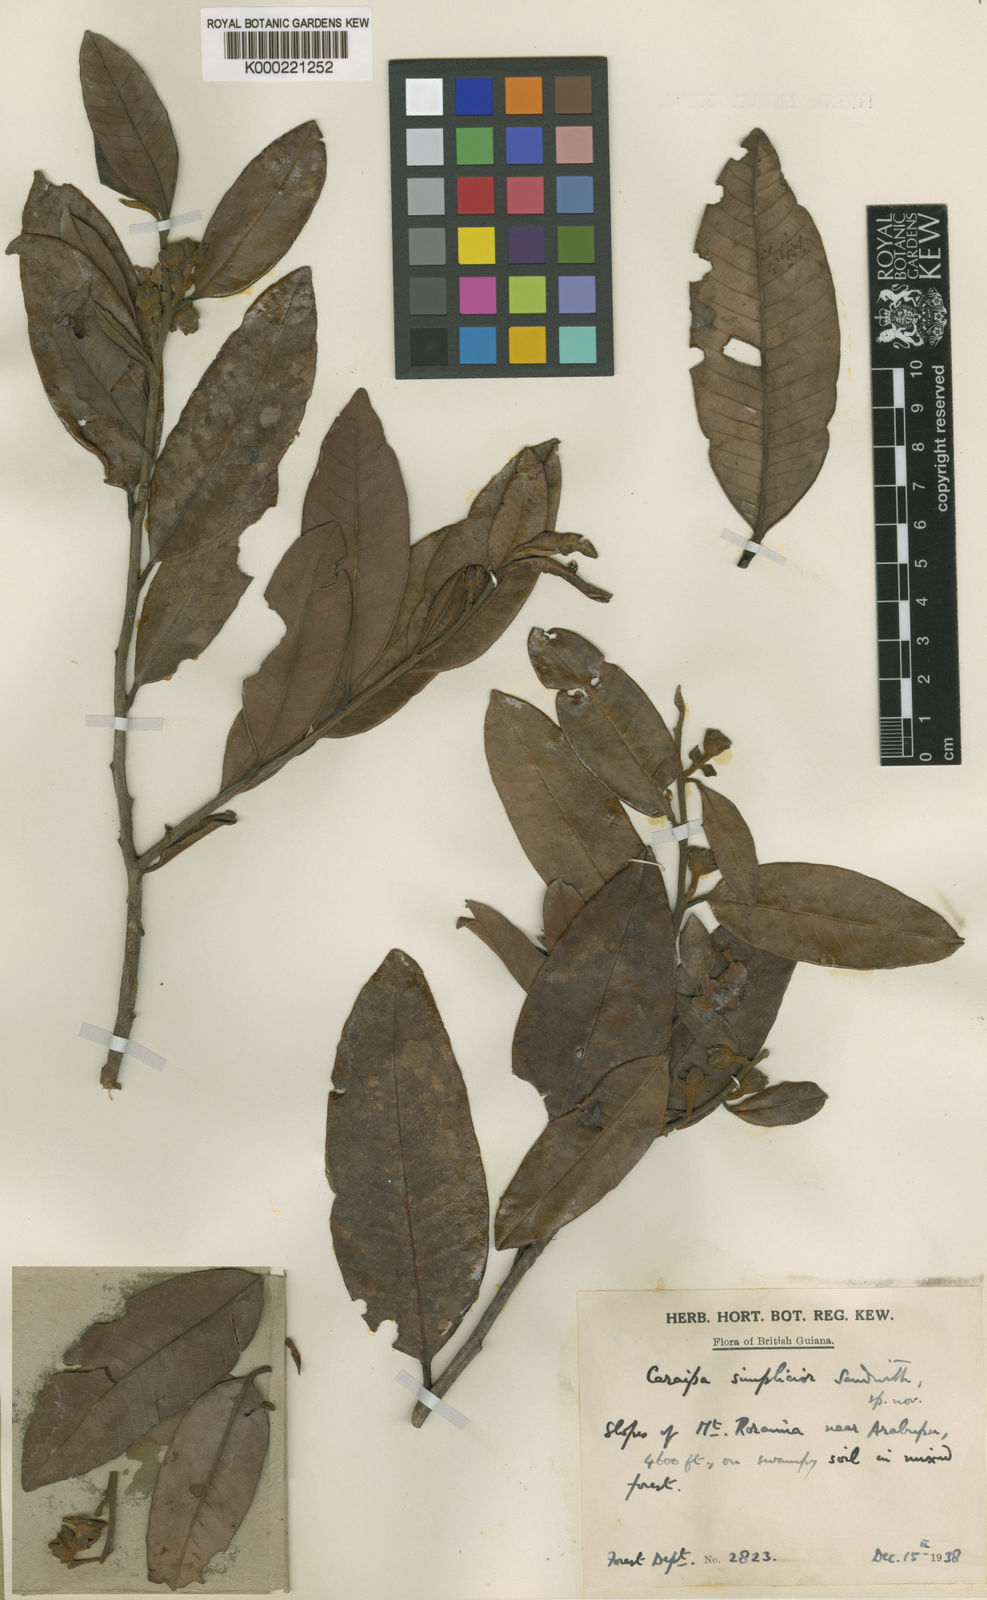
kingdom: Plantae
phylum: Tracheophyta
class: Magnoliopsida
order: Malpighiales
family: Calophyllaceae
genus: Caraipa
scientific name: Caraipa tereticaulis
